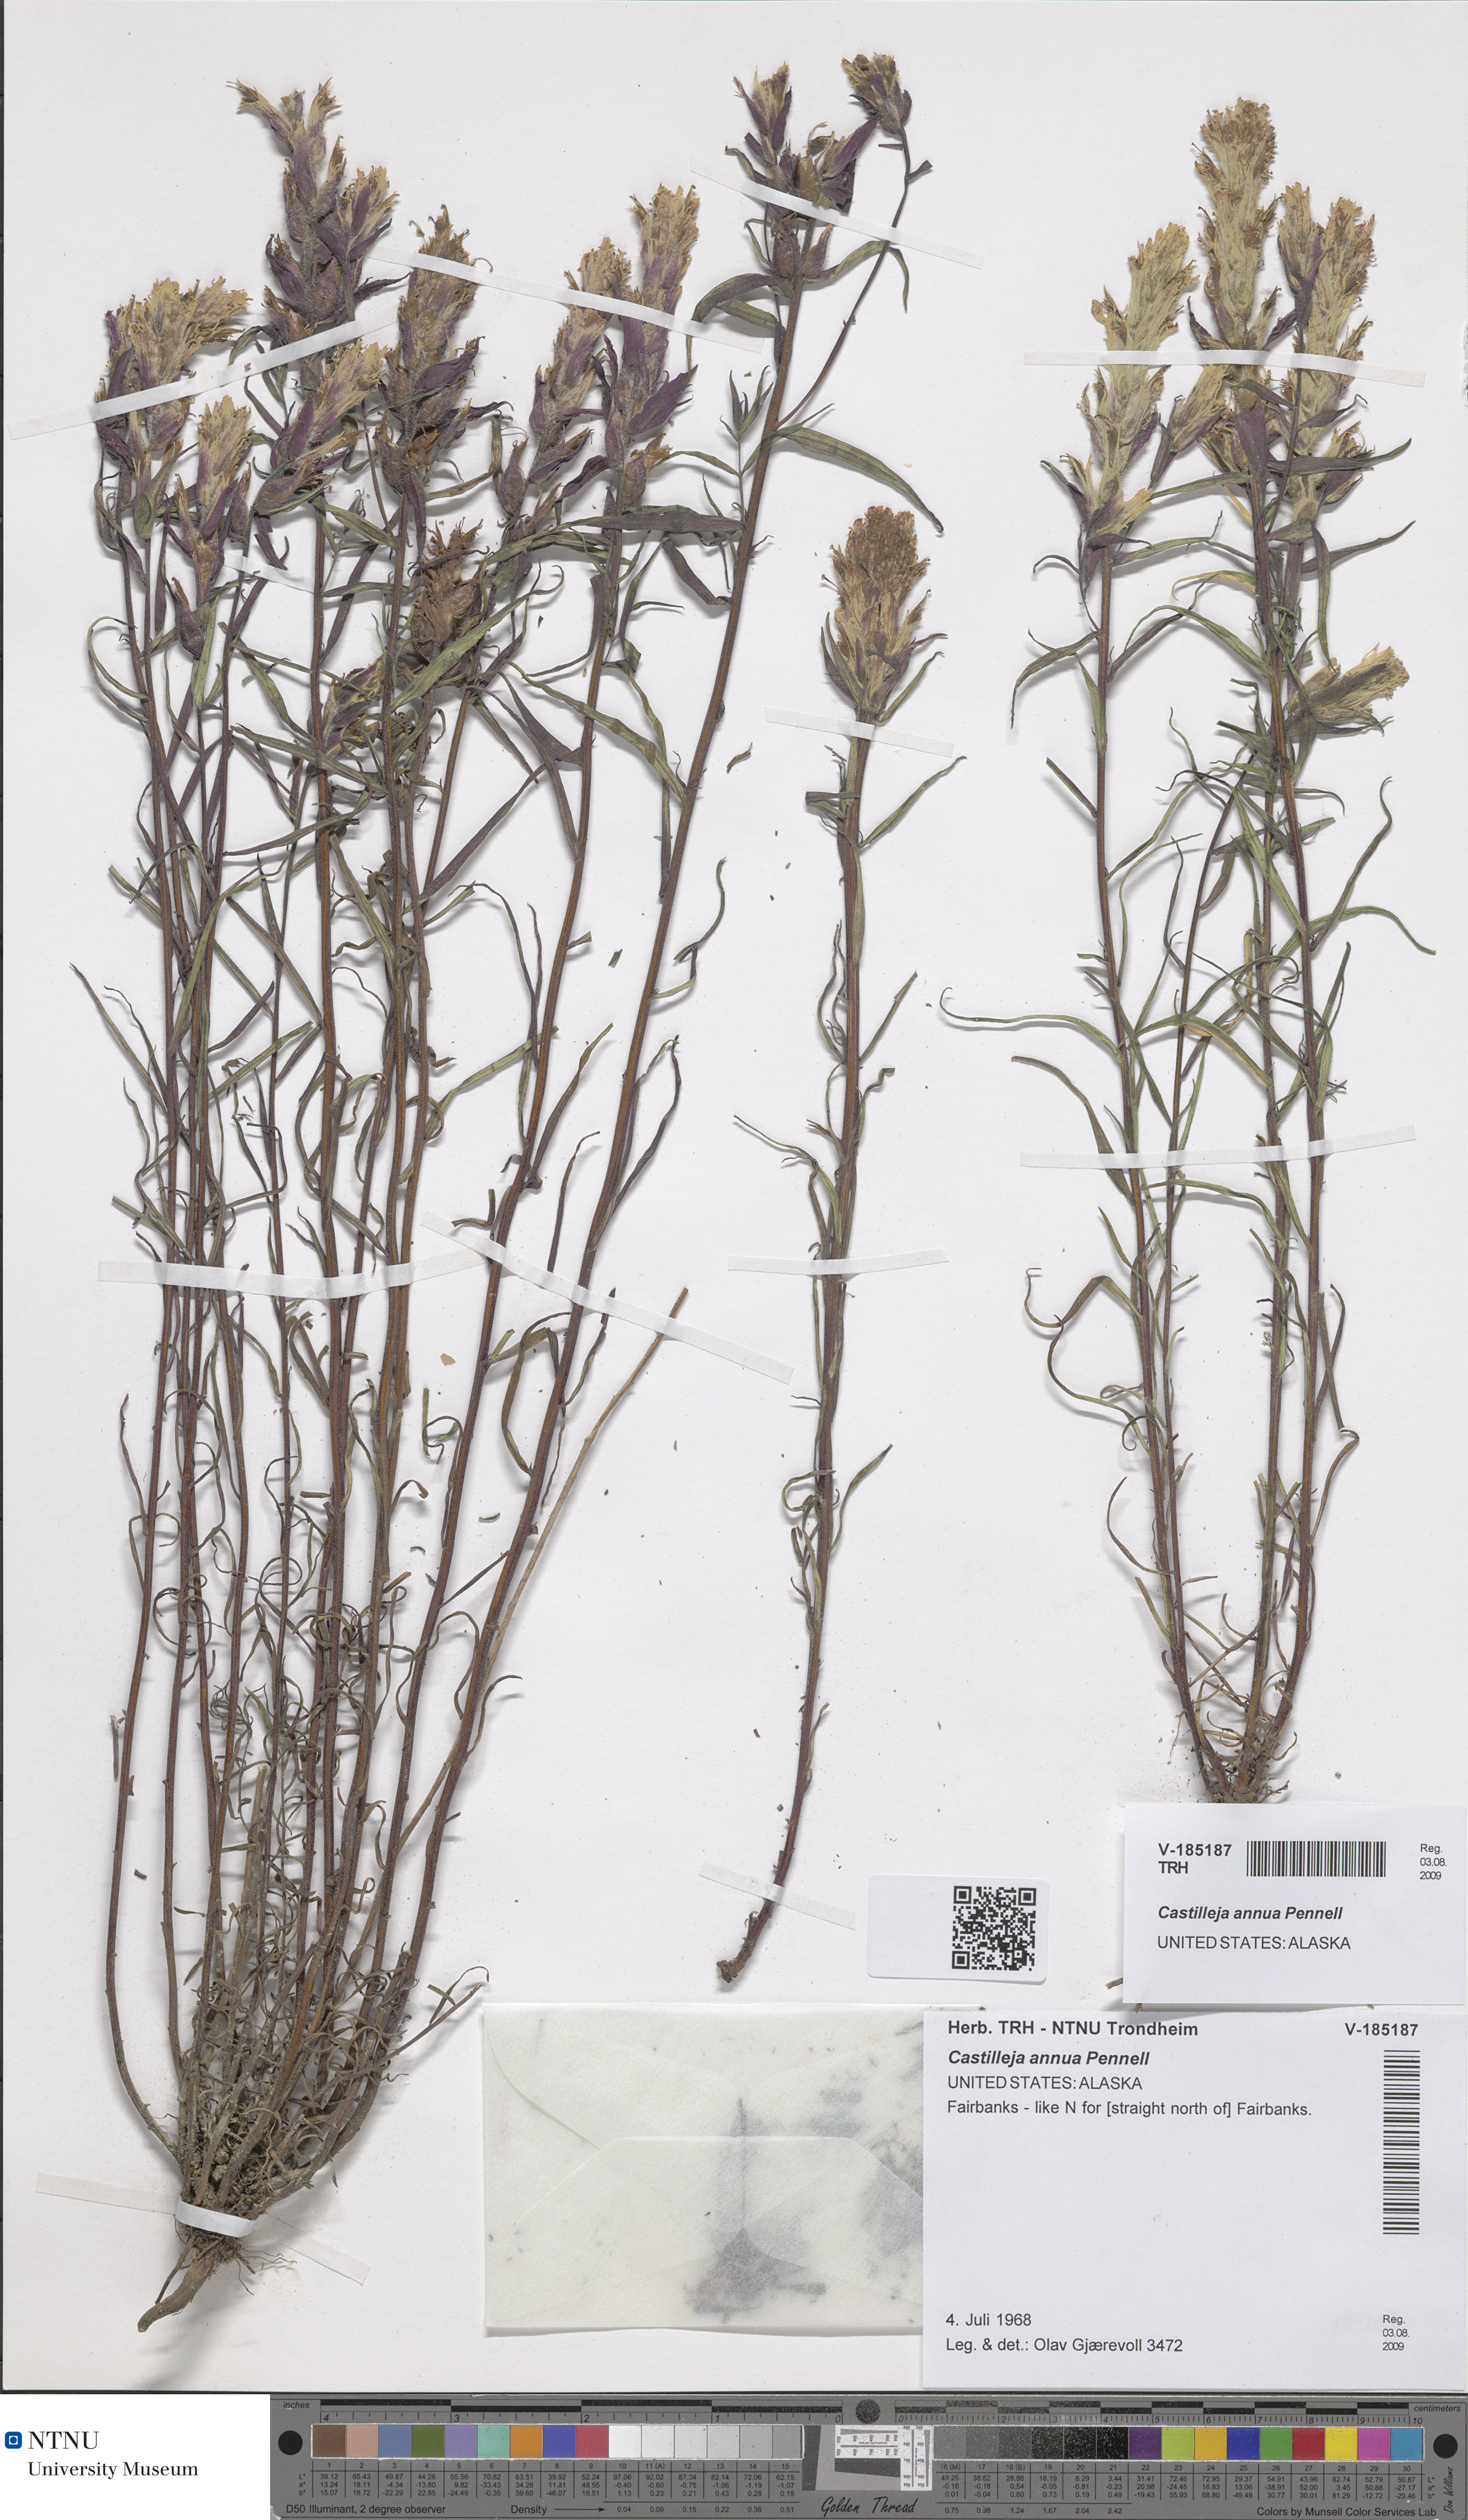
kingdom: Plantae
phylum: Tracheophyta
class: Magnoliopsida
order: Lamiales
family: Orobanchaceae
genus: Castilleja
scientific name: Castilleja pallida
